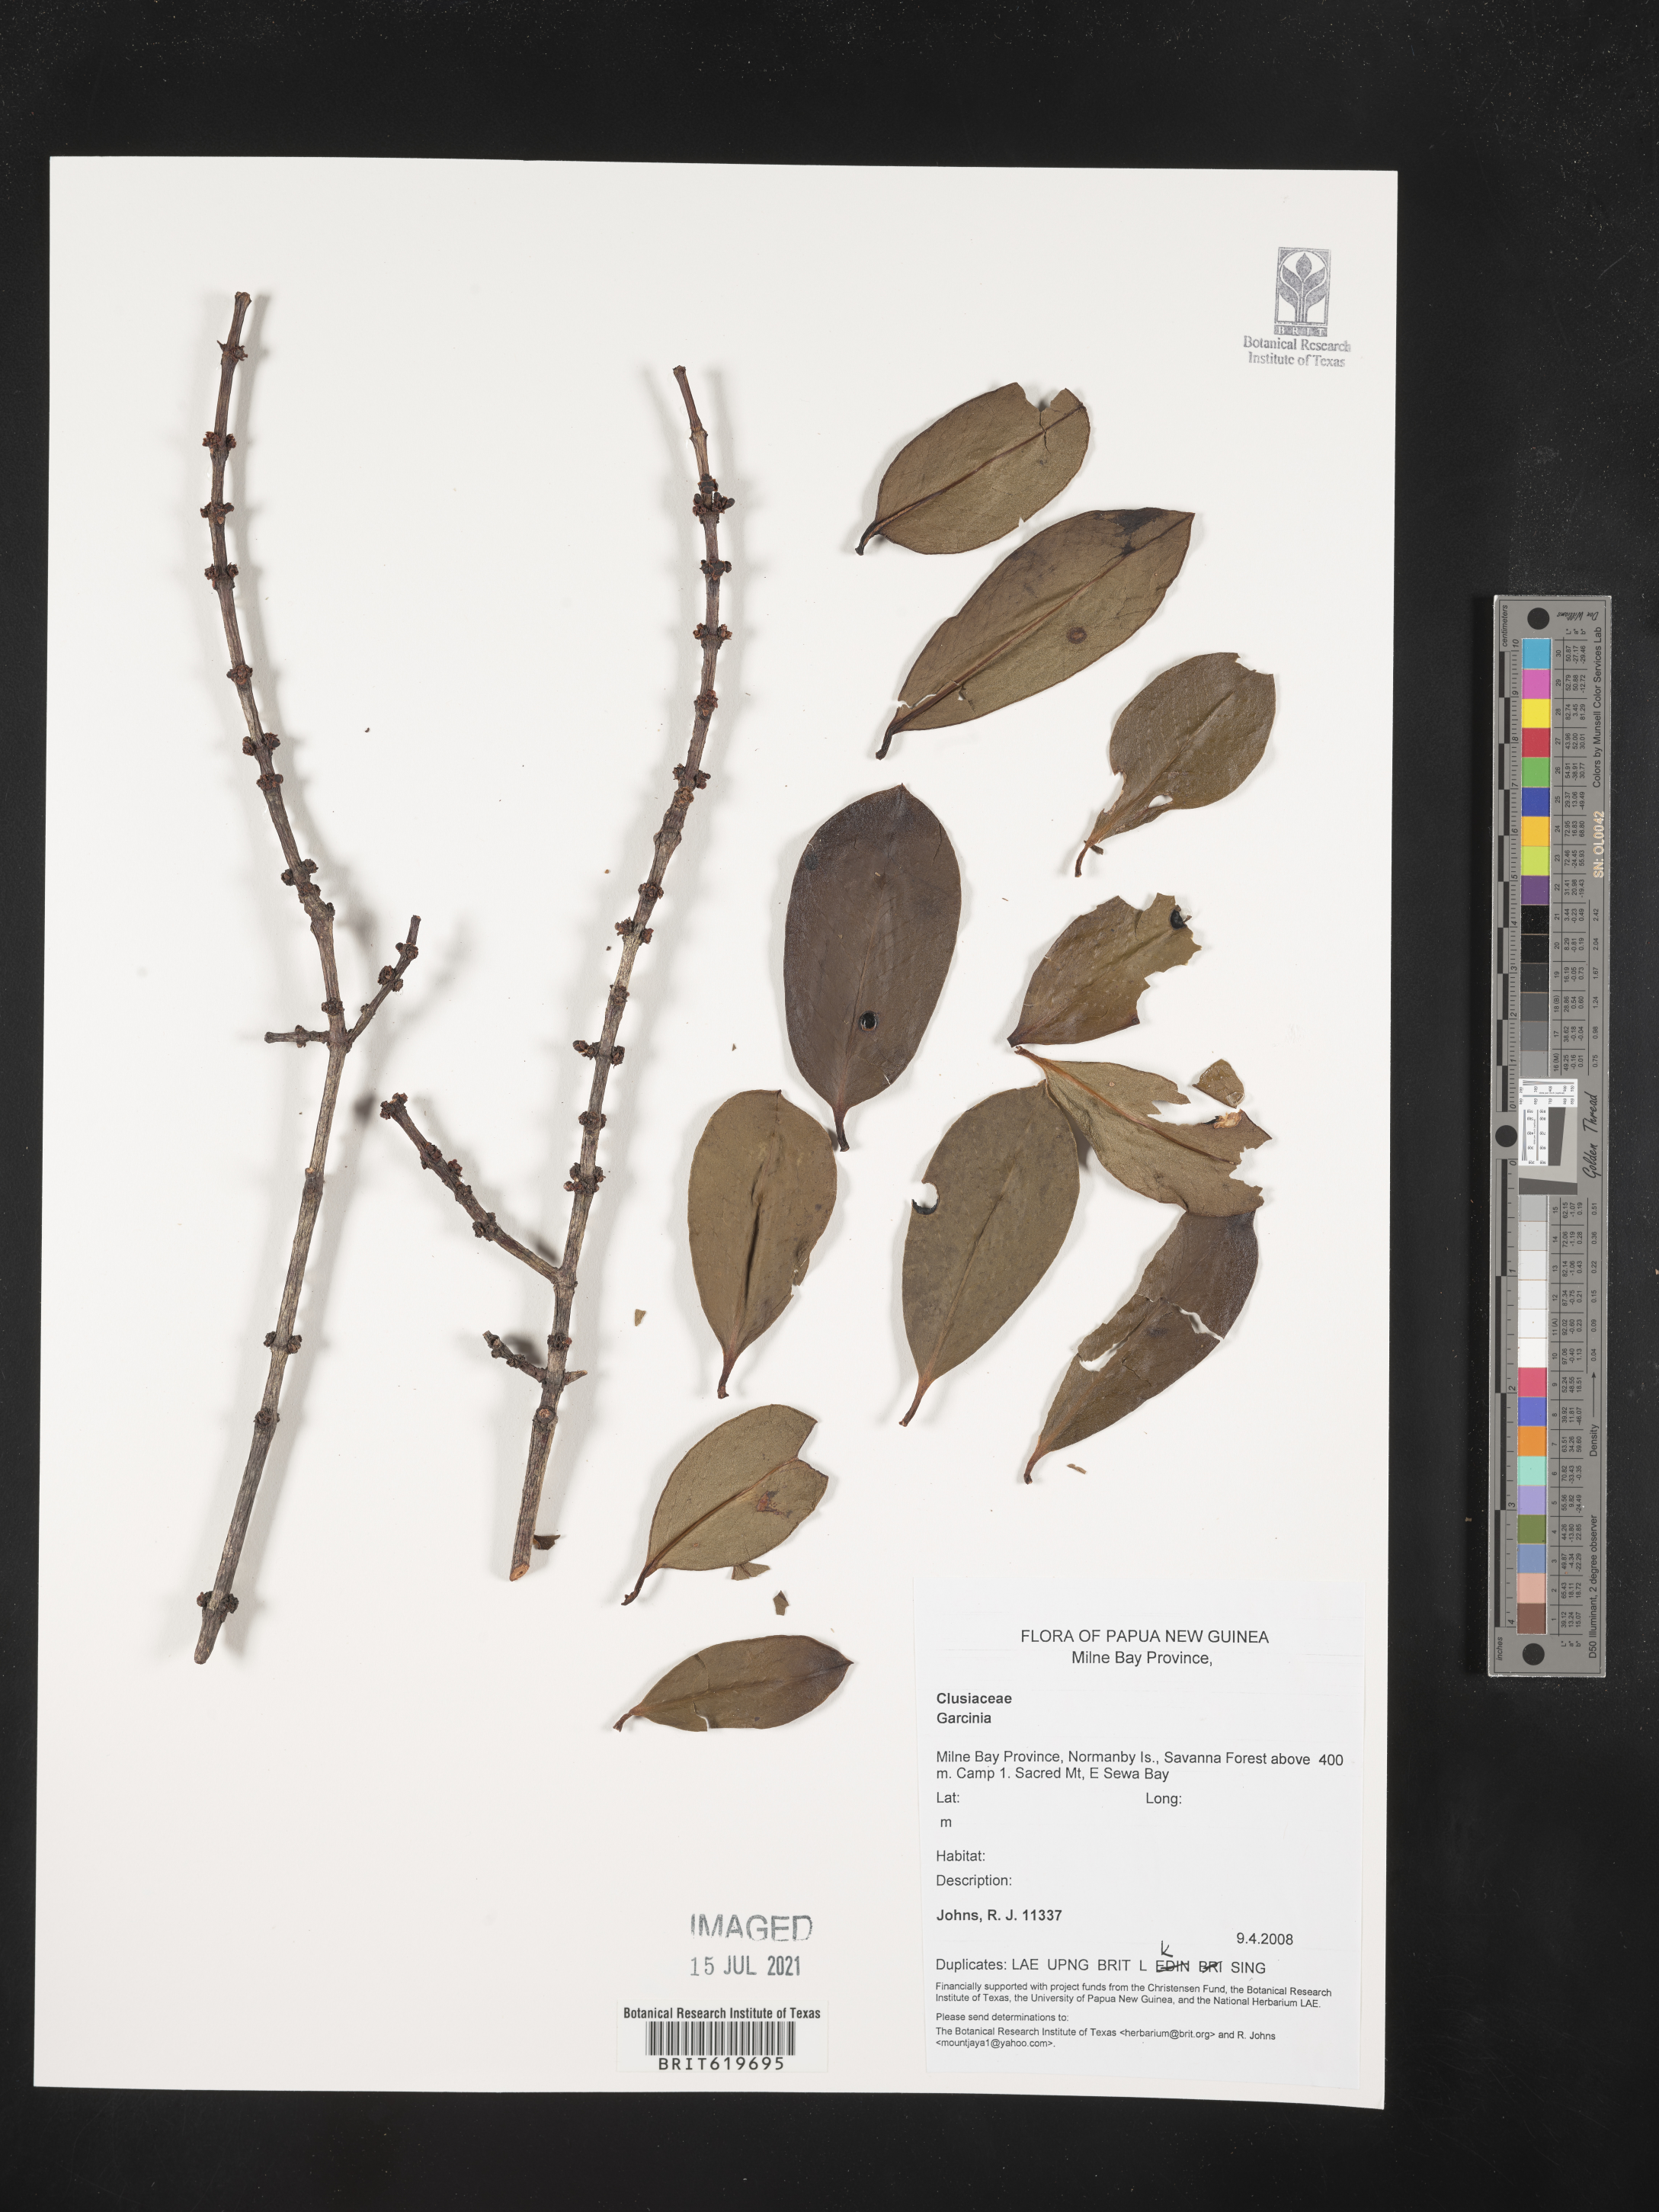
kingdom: Plantae
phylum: Tracheophyta
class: Magnoliopsida
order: Malpighiales
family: Clusiaceae
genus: Garcinia
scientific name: Garcinia
